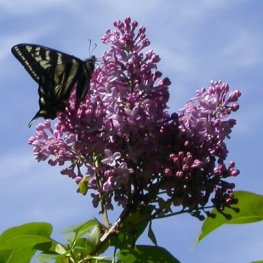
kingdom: Animalia
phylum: Arthropoda
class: Insecta
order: Lepidoptera
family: Papilionidae
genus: Pterourus
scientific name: Pterourus eurymedon
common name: Pale Swallowtail
